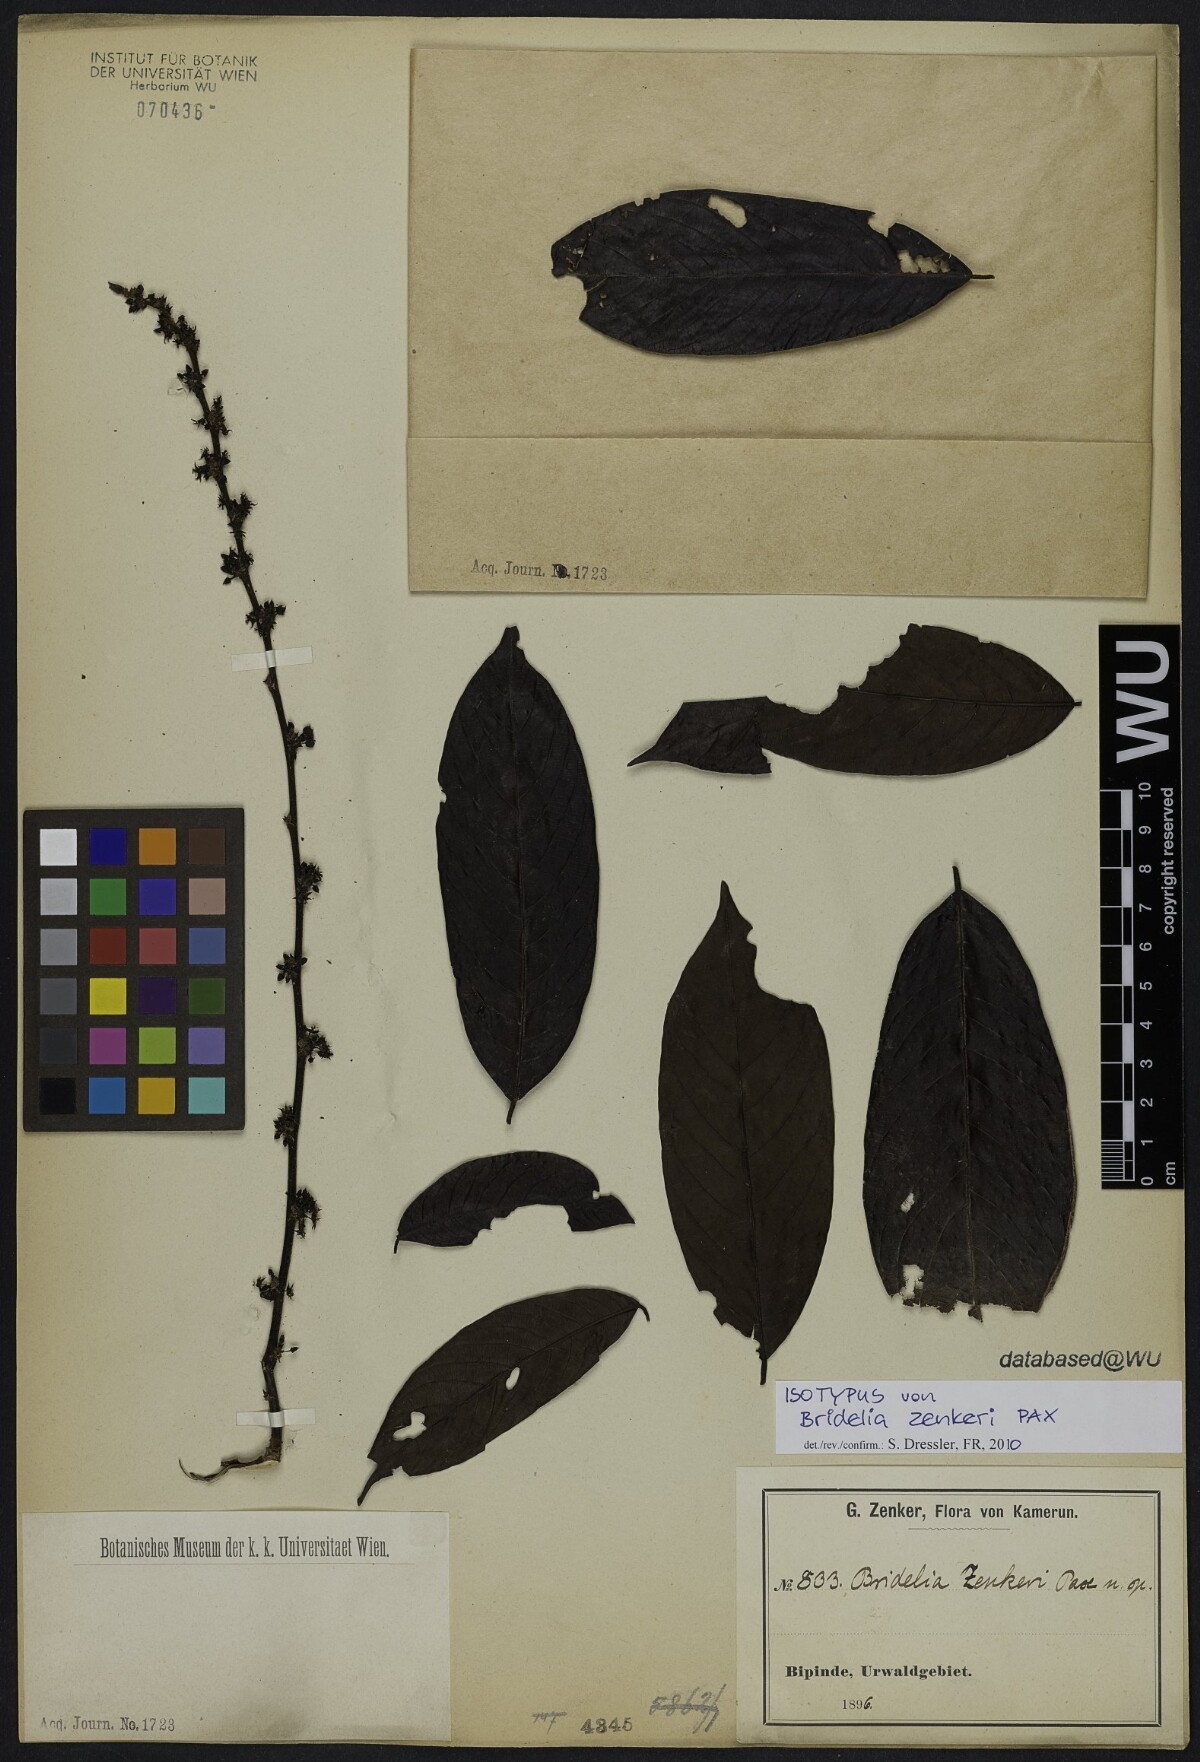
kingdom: Plantae
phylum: Tracheophyta
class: Magnoliopsida
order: Malpighiales
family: Phyllanthaceae
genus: Bridelia
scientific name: Bridelia atroviridis
